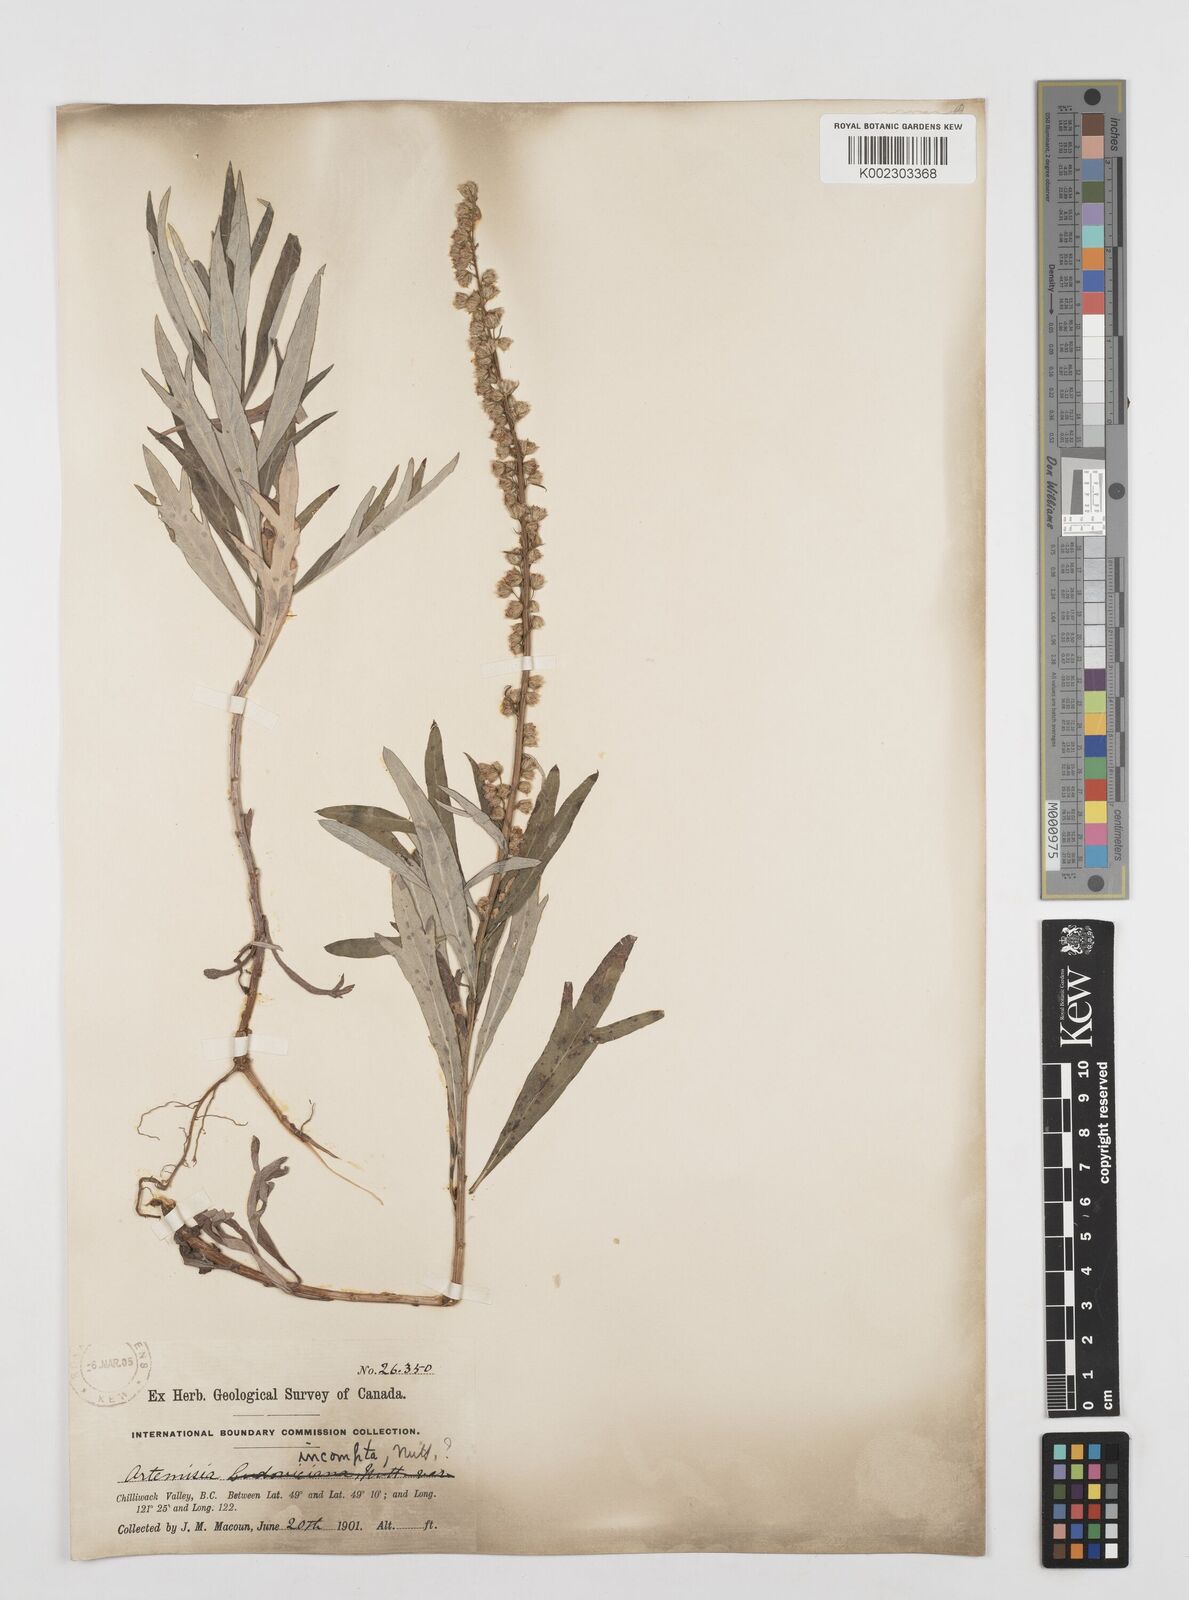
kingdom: Plantae
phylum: Tracheophyta
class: Magnoliopsida
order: Asterales
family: Asteraceae
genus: Artemisia
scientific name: Artemisia
